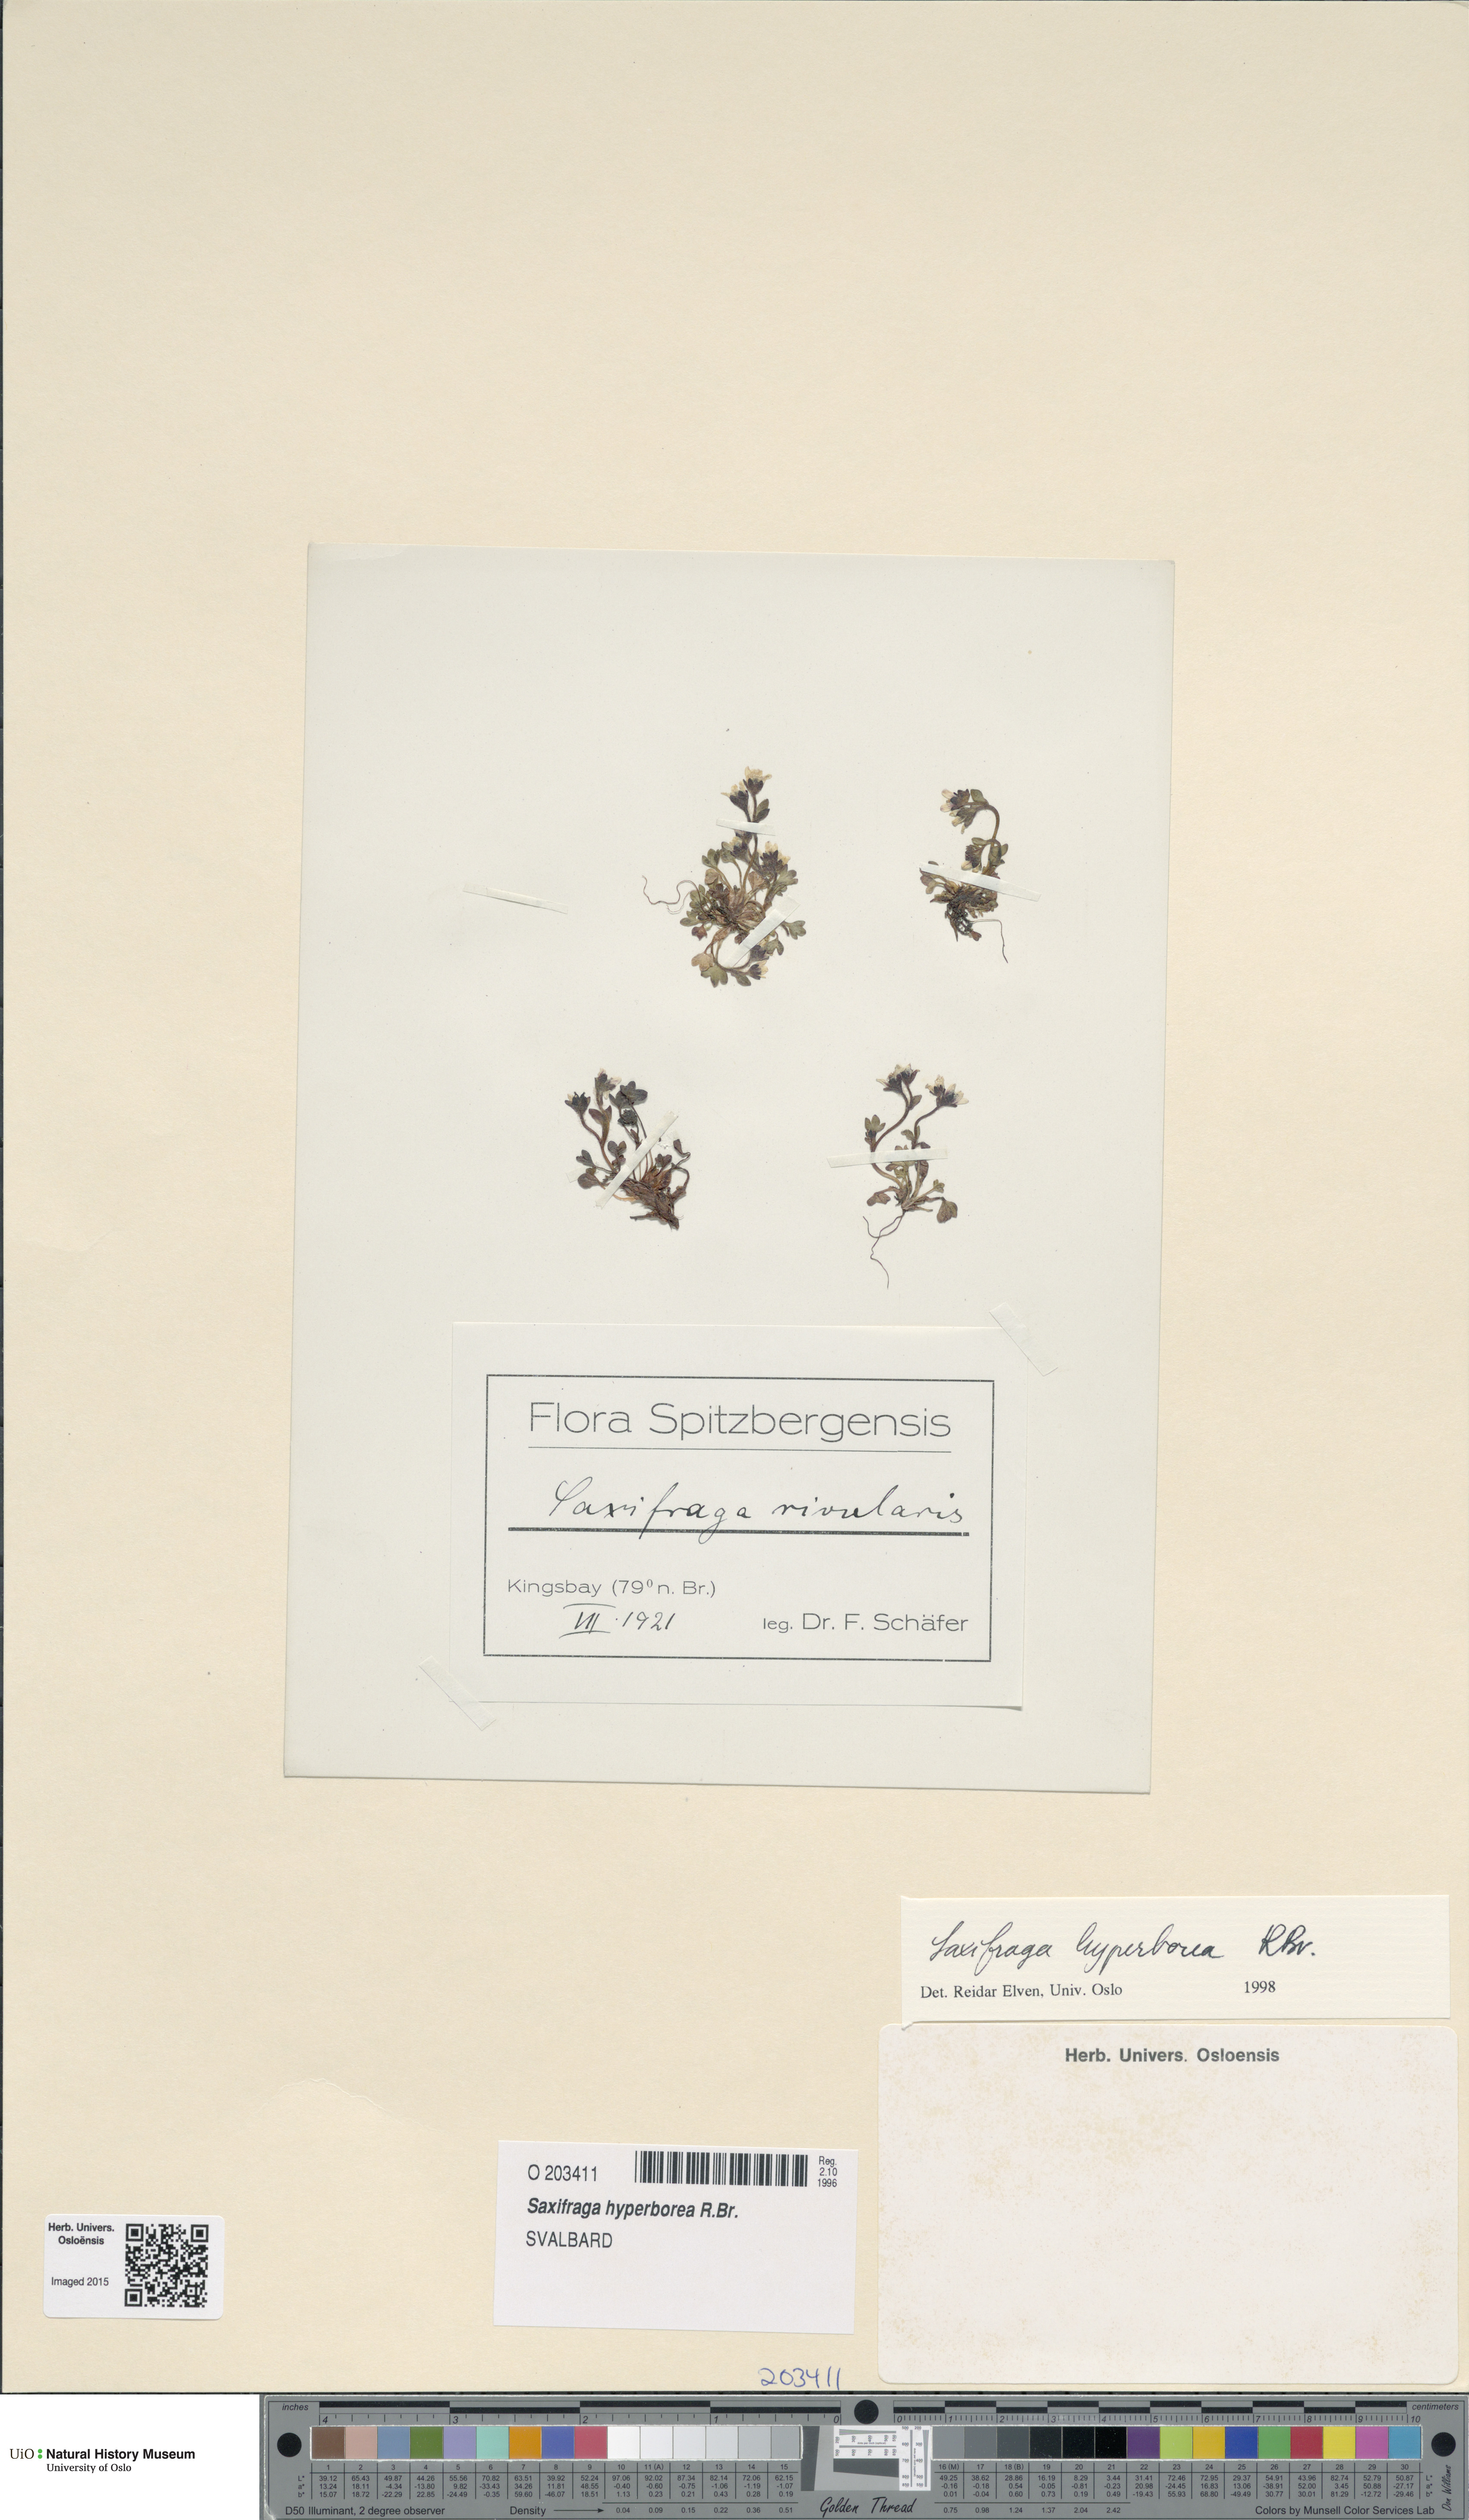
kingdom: Plantae
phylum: Tracheophyta
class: Magnoliopsida
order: Saxifragales
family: Saxifragaceae
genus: Saxifraga
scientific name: Saxifraga hyperborea
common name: Arctic saxifrage
